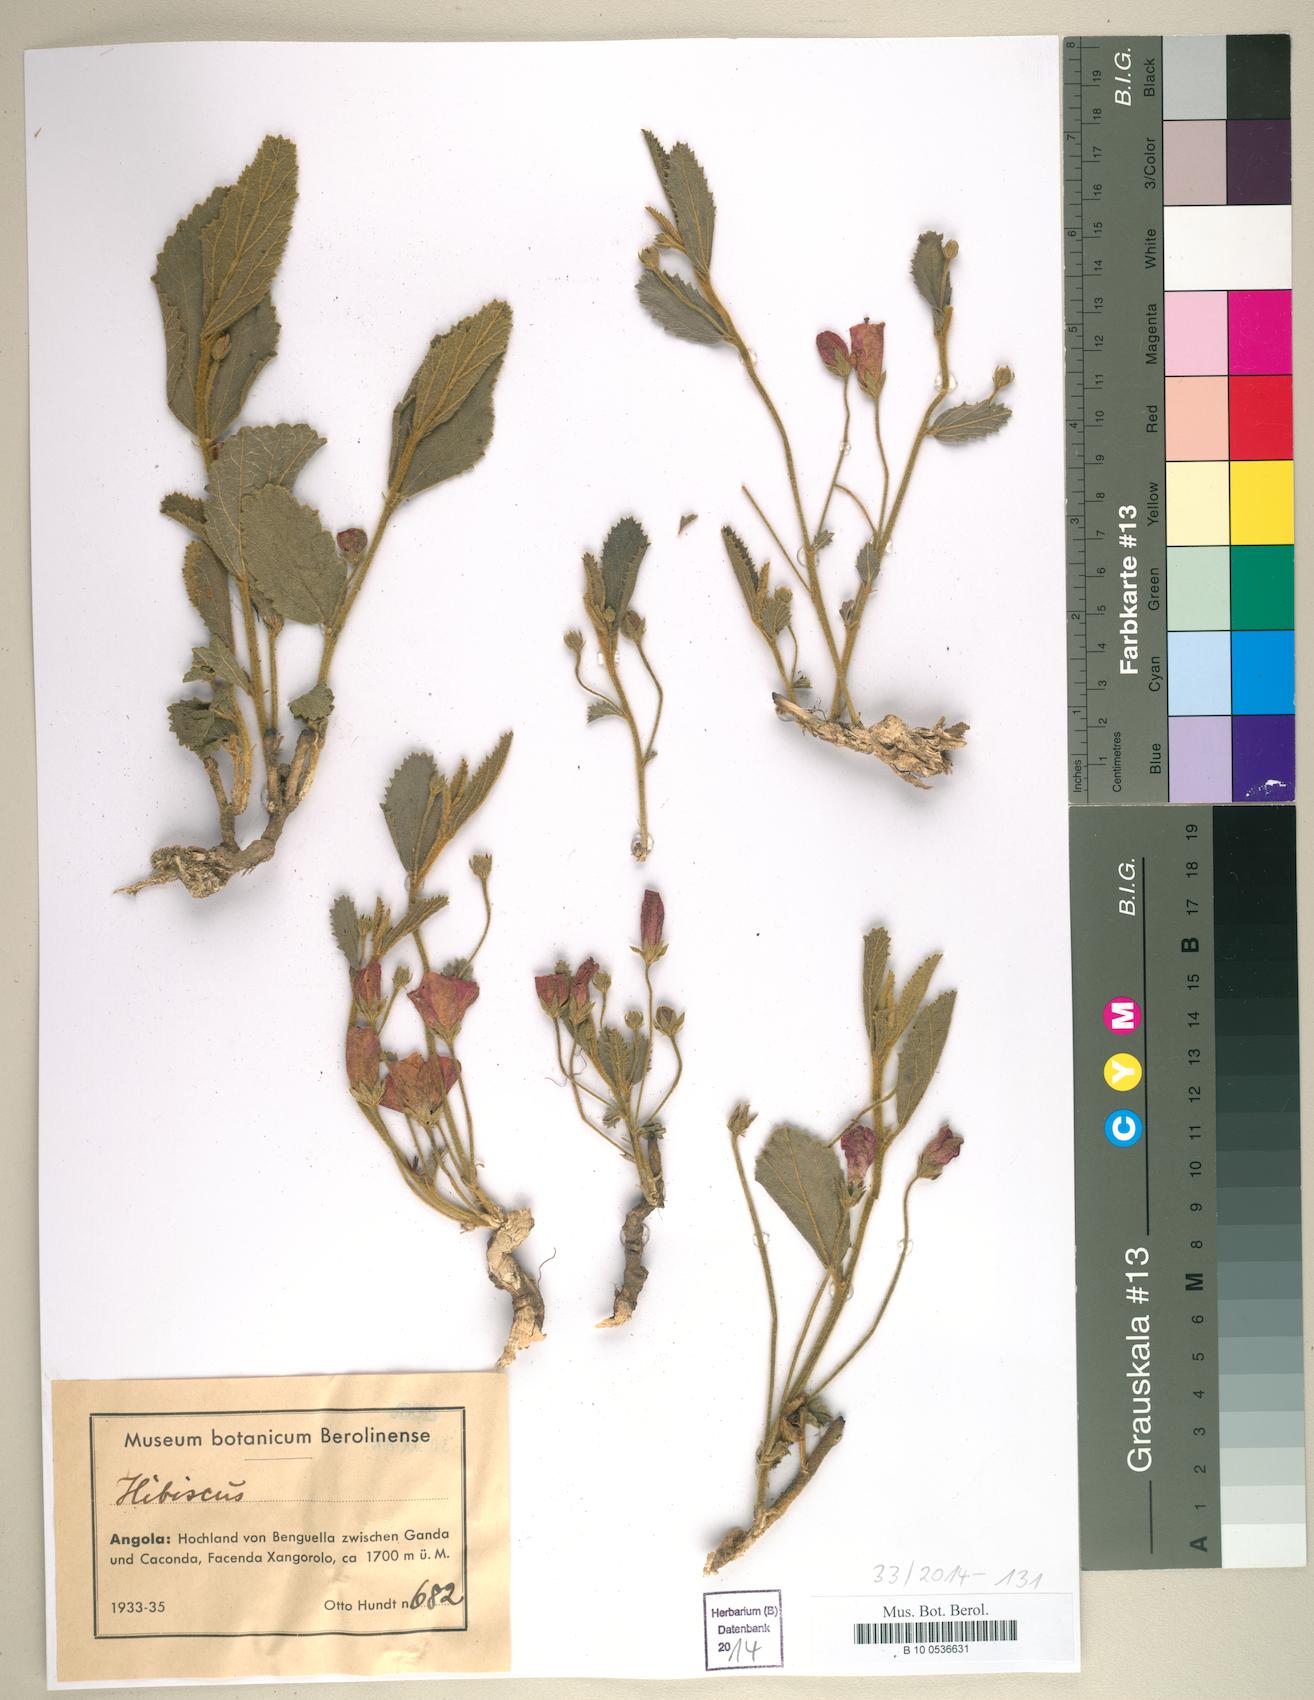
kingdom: Plantae
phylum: Tracheophyta
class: Magnoliopsida
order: Malvales
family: Malvaceae
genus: Hibiscus
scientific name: Hibiscus
